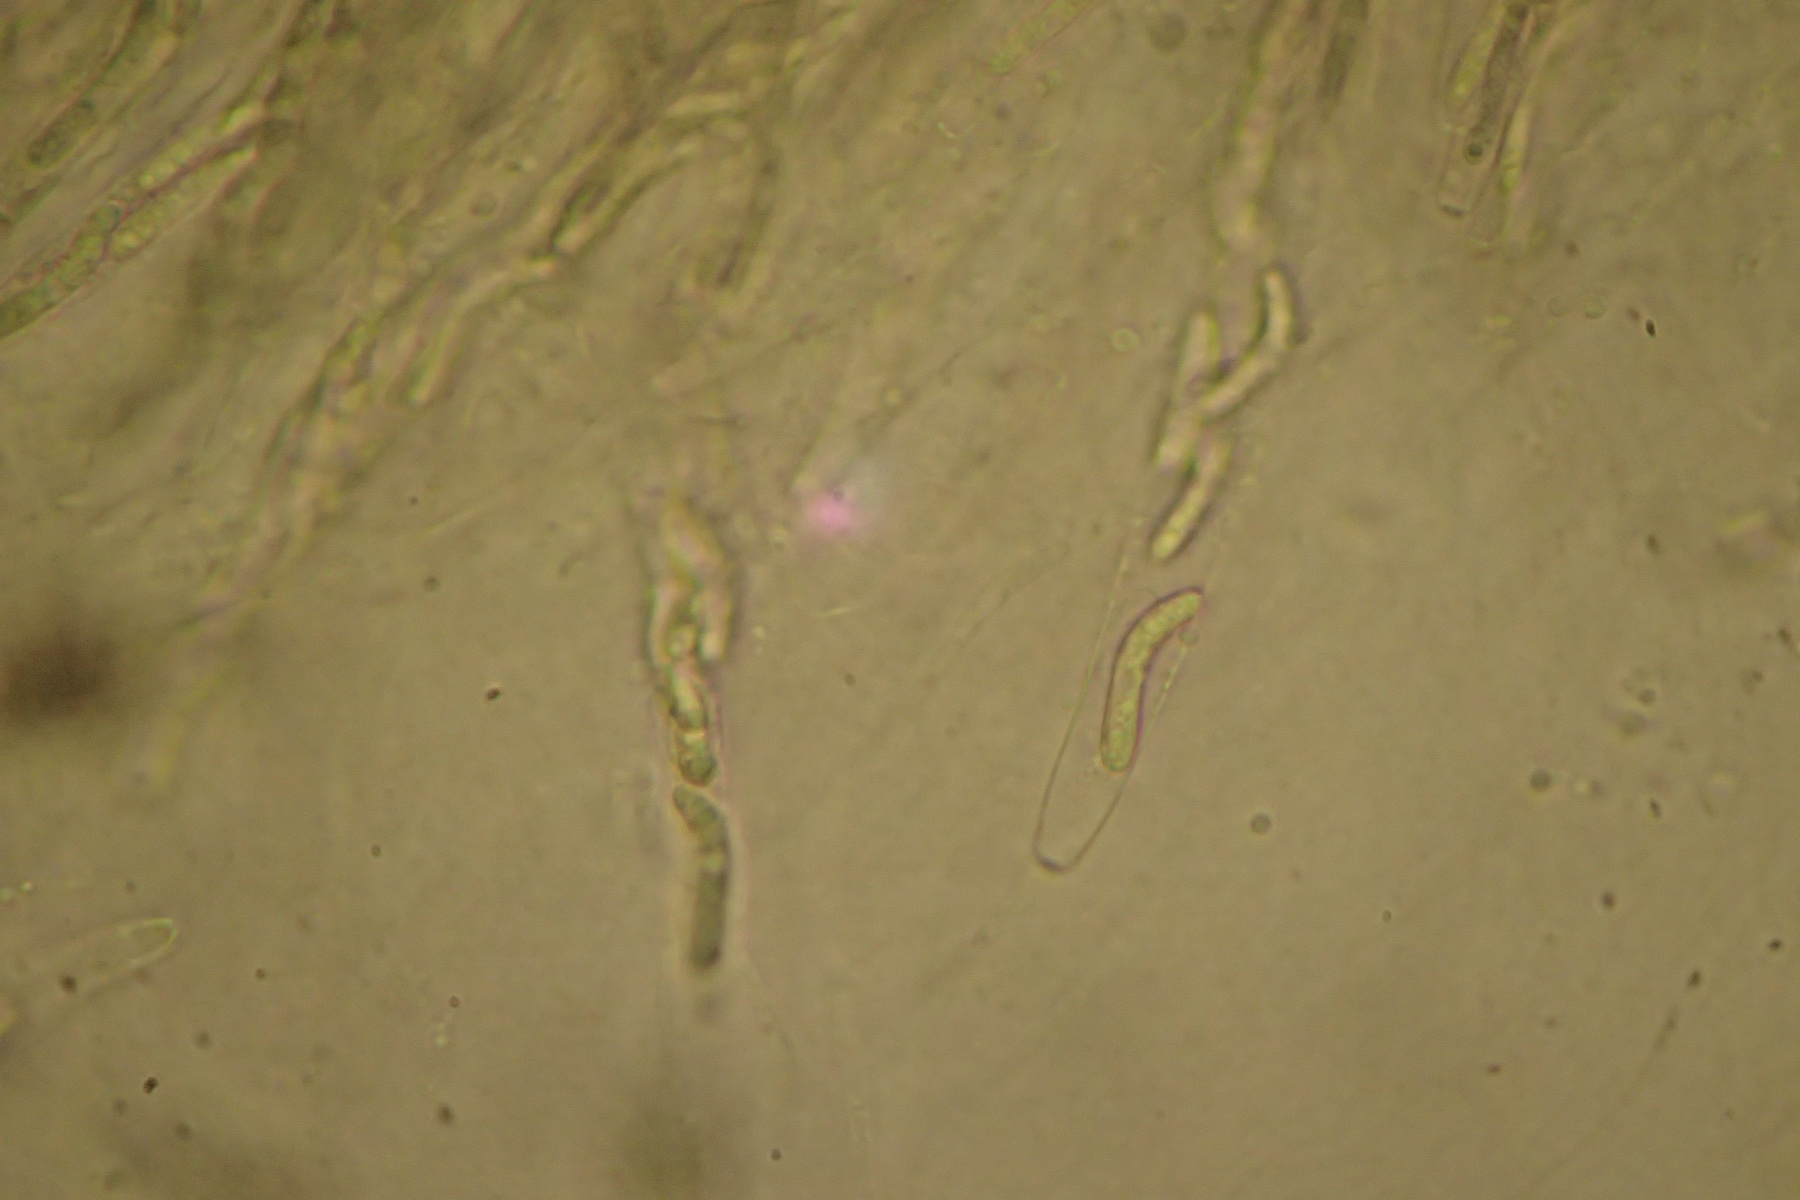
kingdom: Fungi
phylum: Ascomycota
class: Sordariomycetes
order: Sordariales
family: Helminthosphaeriaceae
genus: Ruzenia
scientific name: Ruzenia spermoides
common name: glat børstekerne
